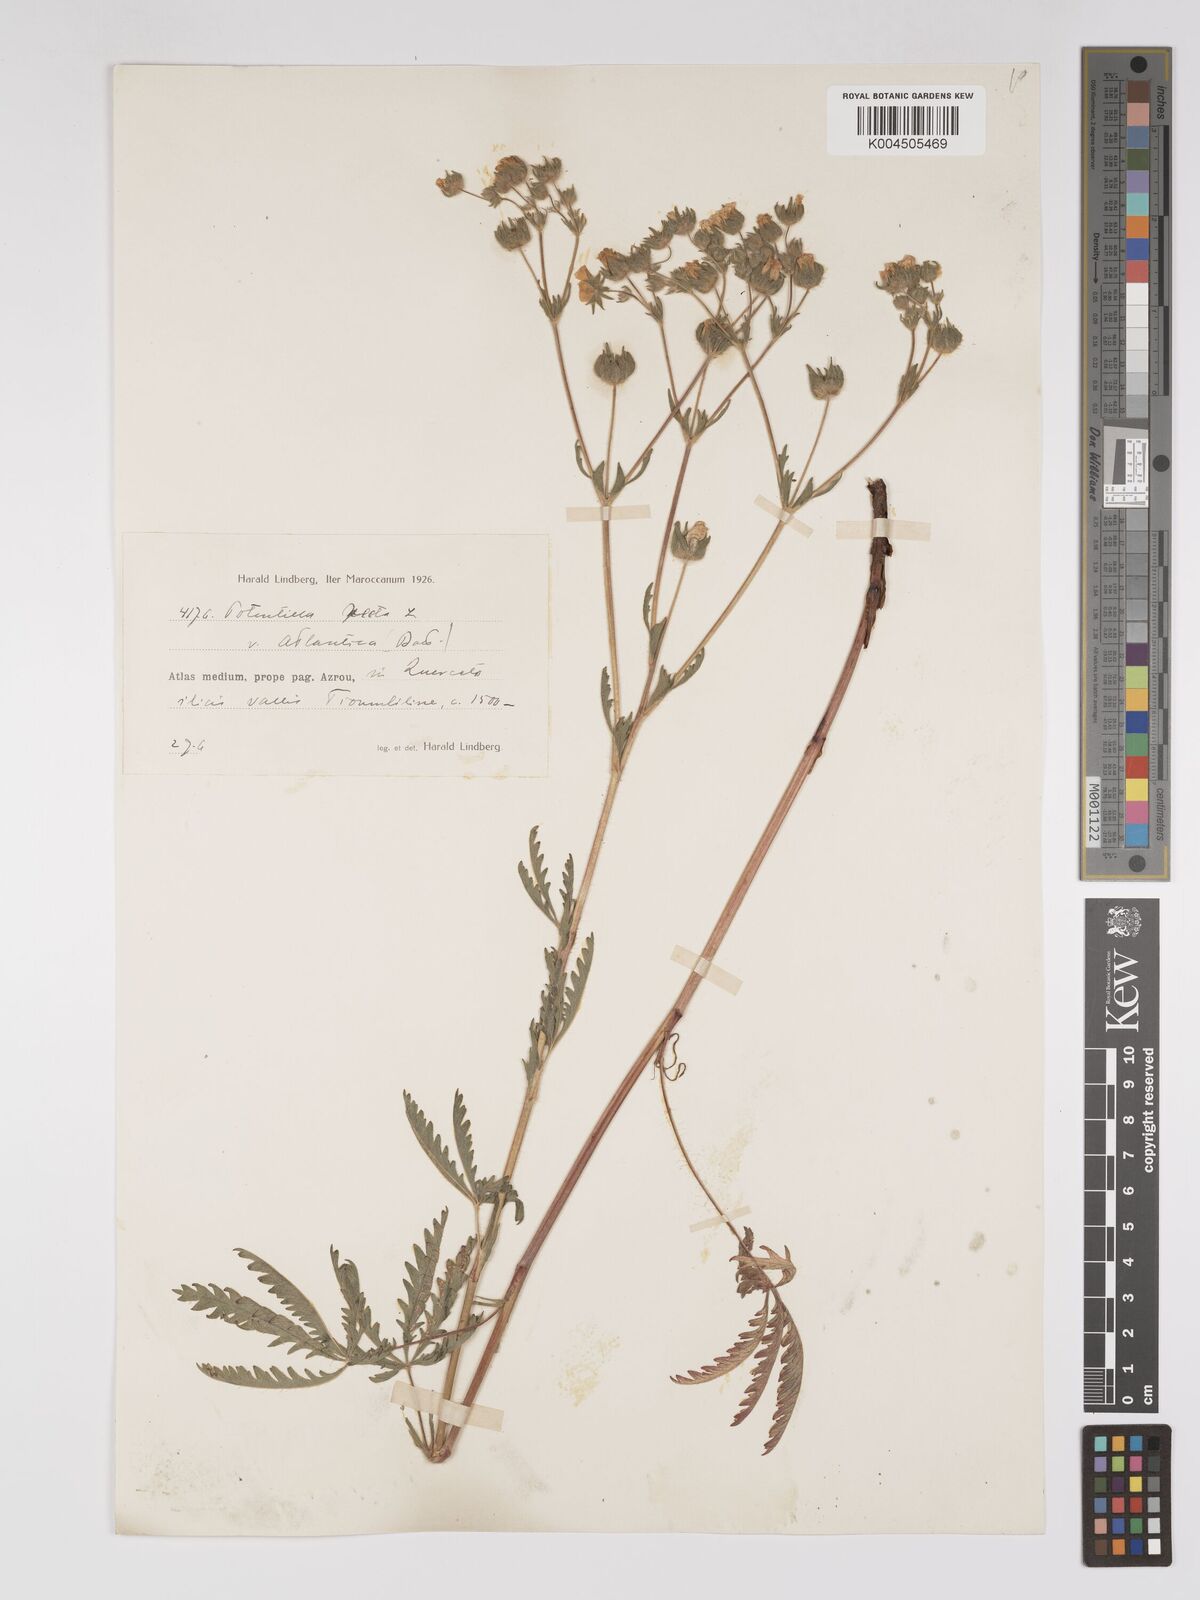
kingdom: Plantae
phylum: Tracheophyta
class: Magnoliopsida
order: Rosales
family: Rosaceae
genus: Potentilla
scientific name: Potentilla hirta
